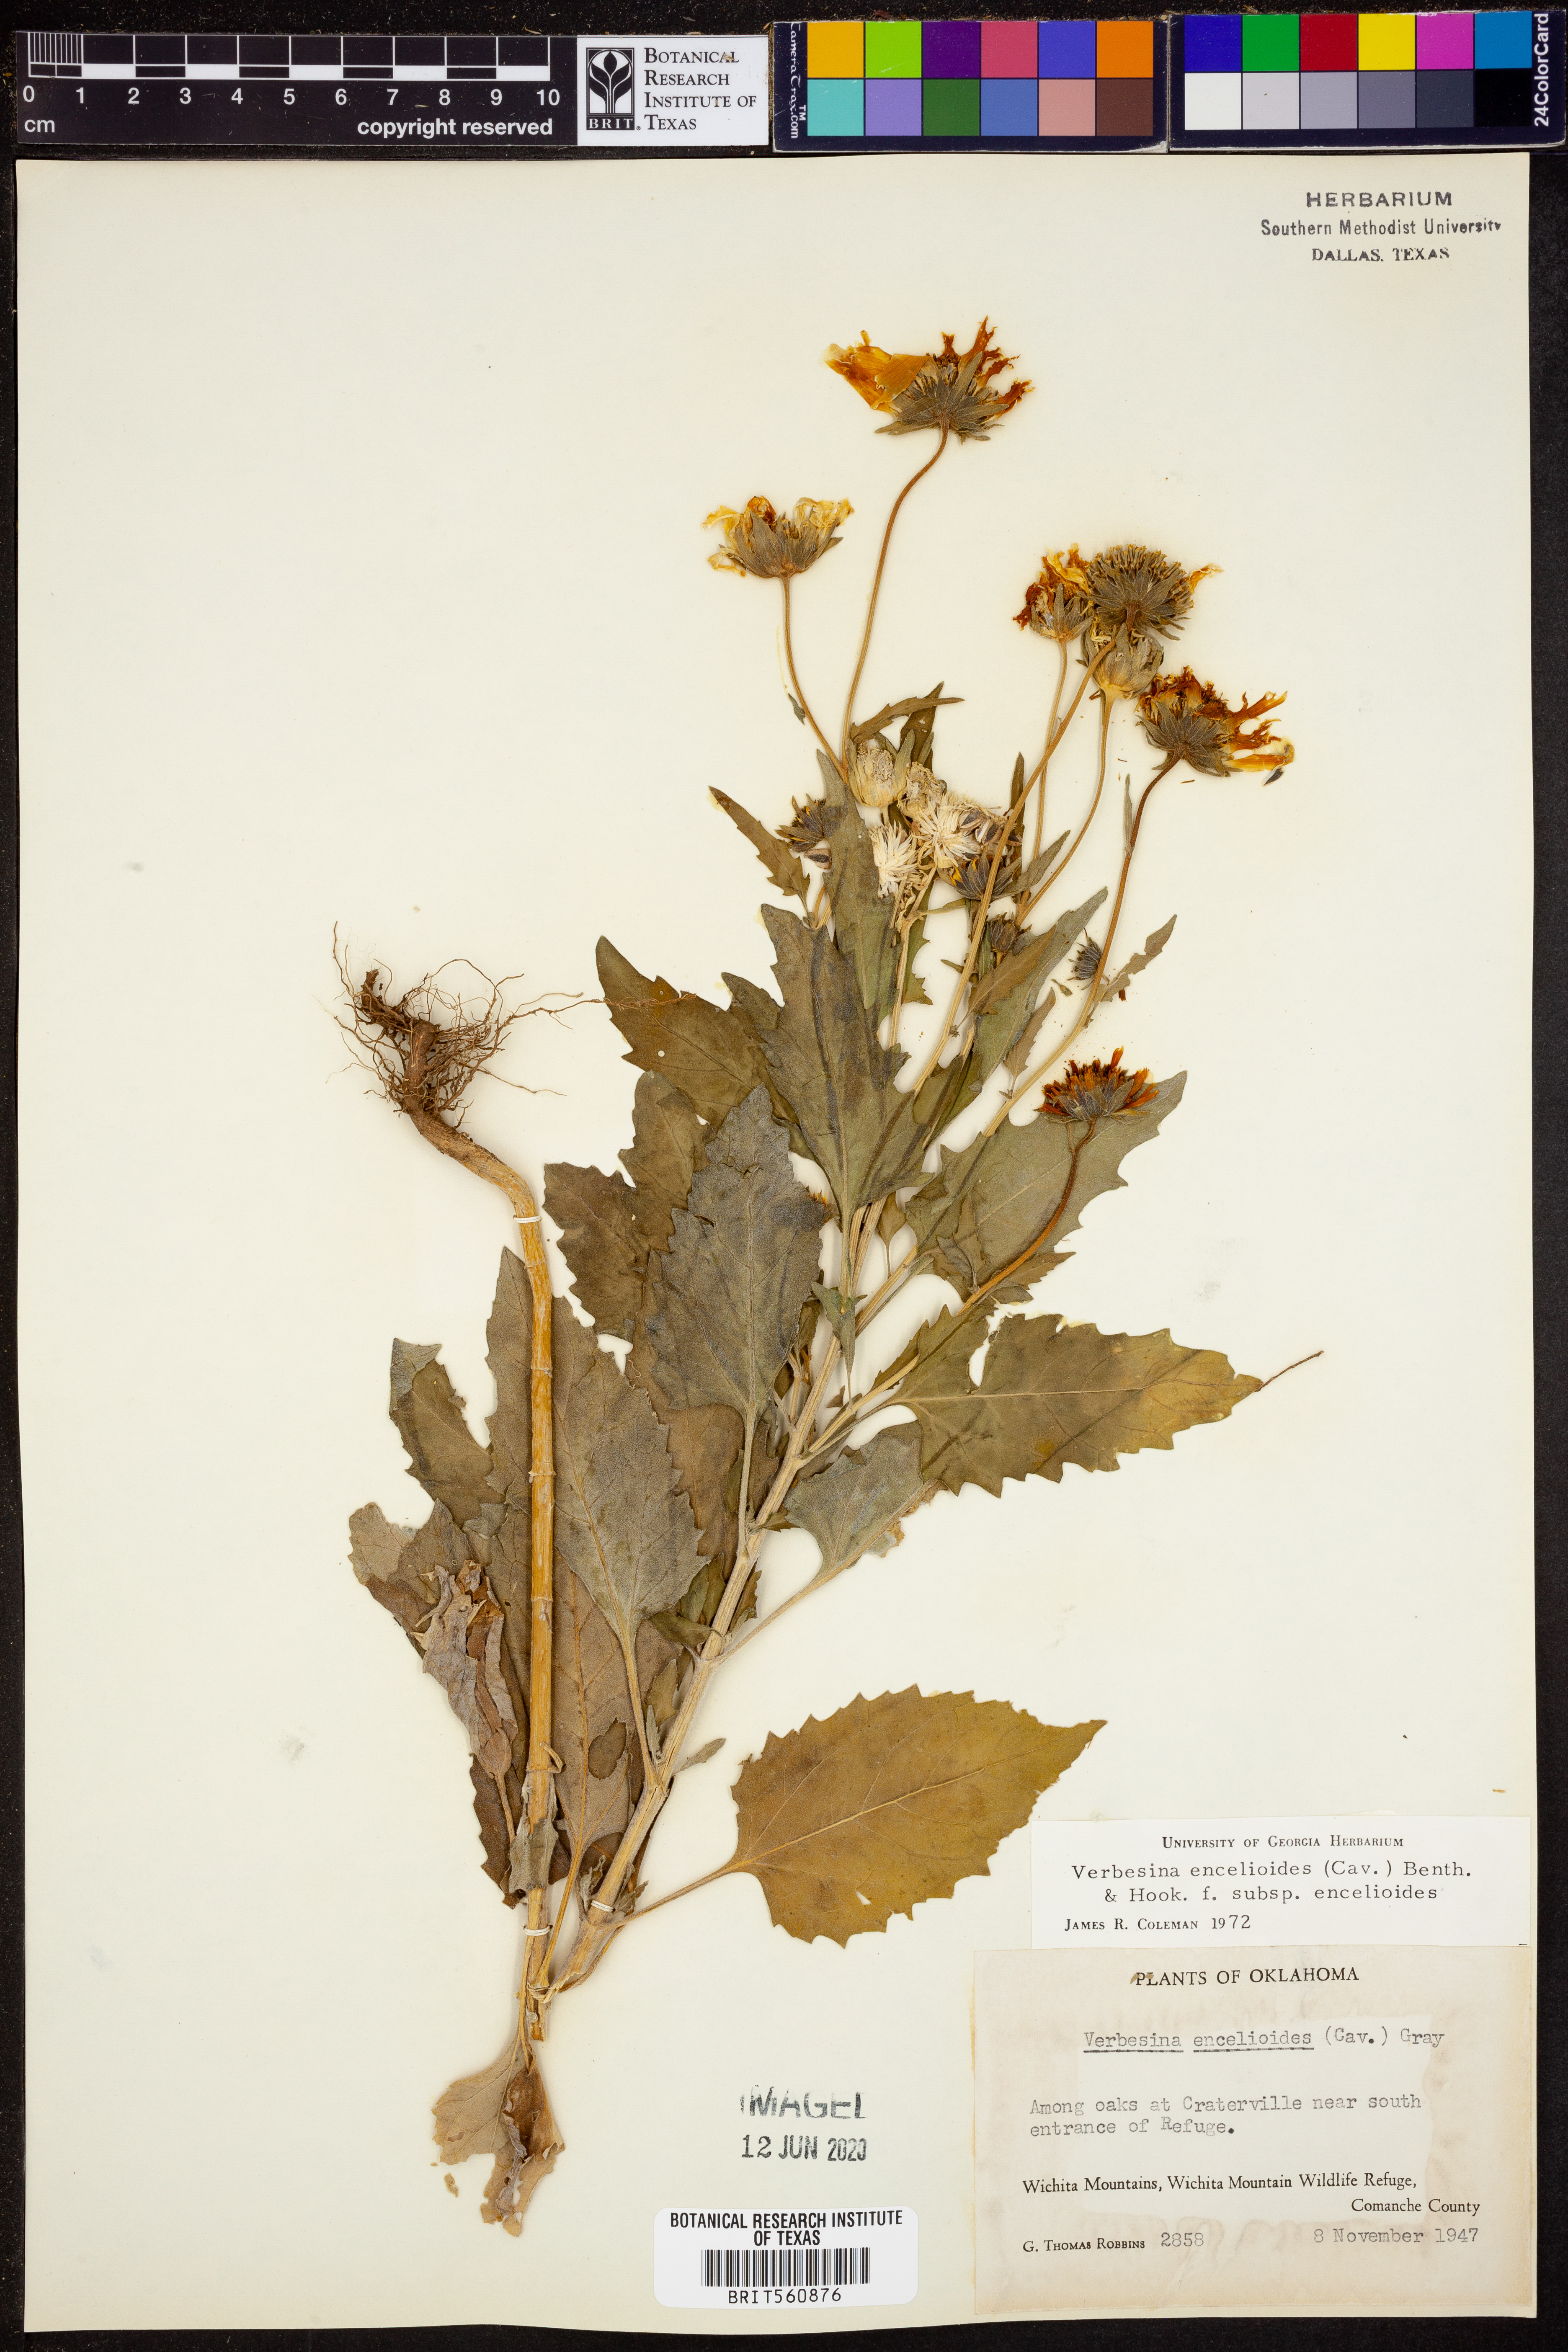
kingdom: Plantae
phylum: Tracheophyta
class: Magnoliopsida
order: Asterales
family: Asteraceae
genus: Verbesina
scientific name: Verbesina encelioides
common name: Golden crownbeard
